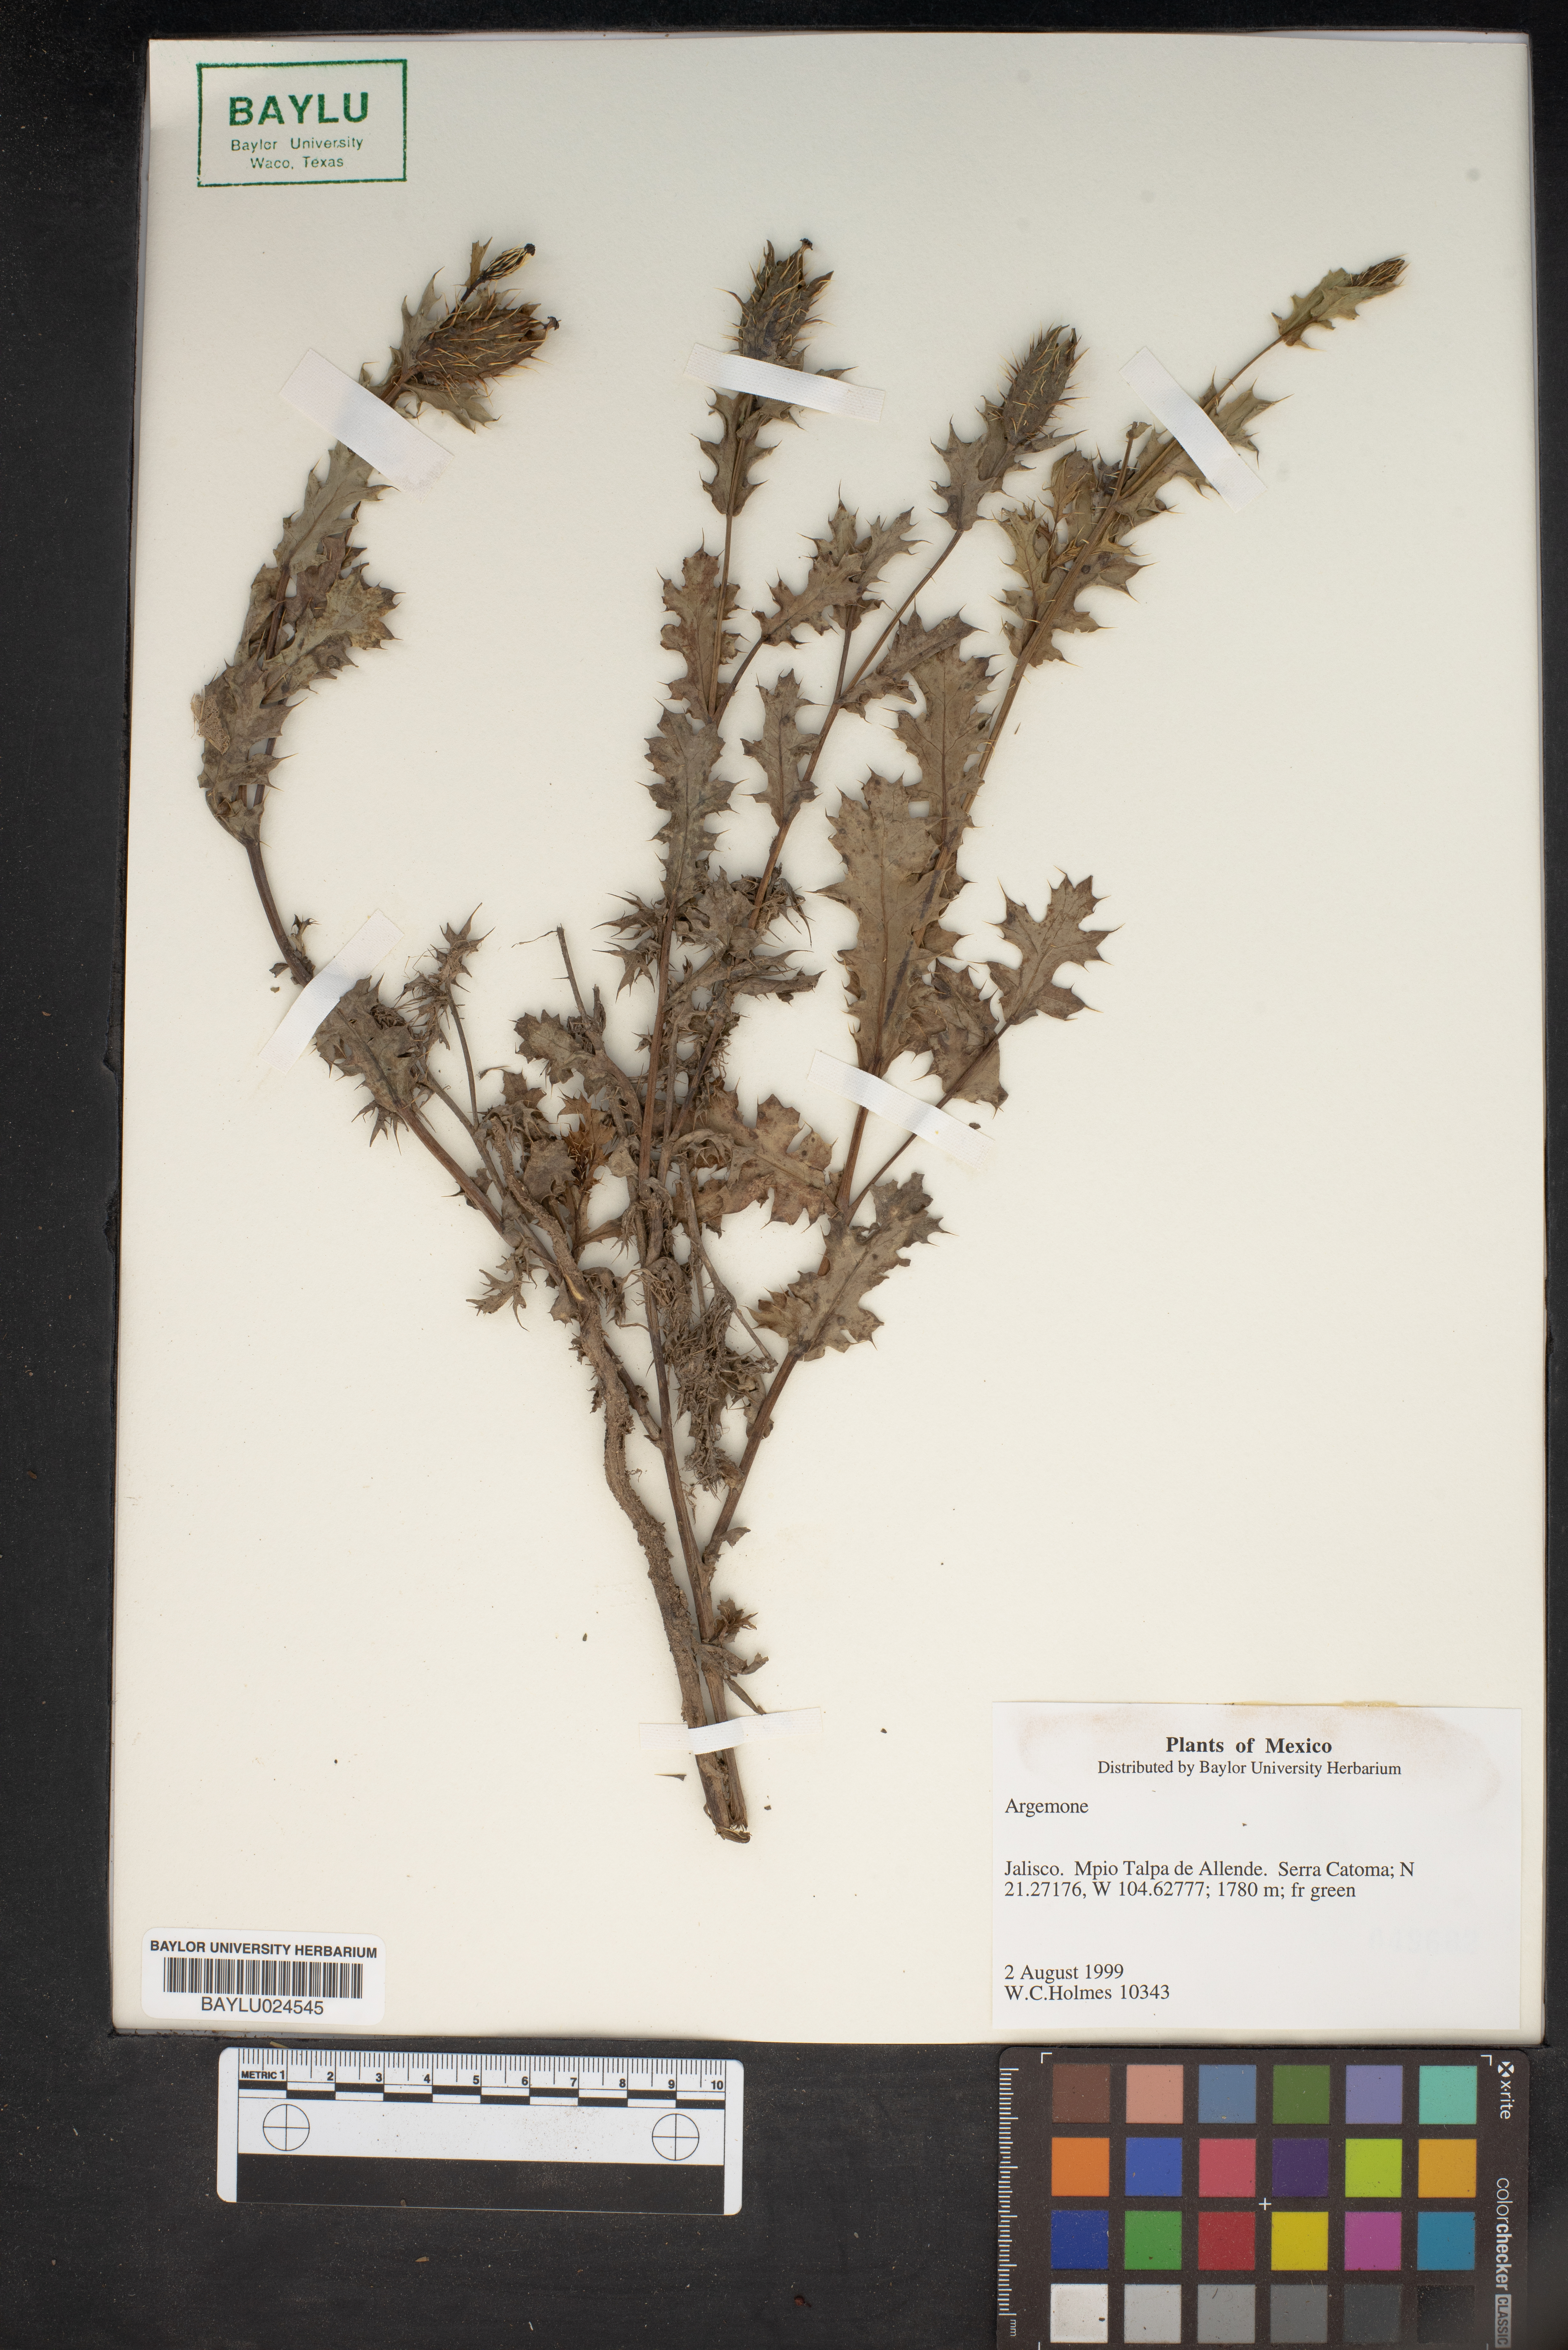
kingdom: Plantae
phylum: Tracheophyta
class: Magnoliopsida
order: Ranunculales
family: Papaveraceae
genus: Argemone
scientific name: Argemone
